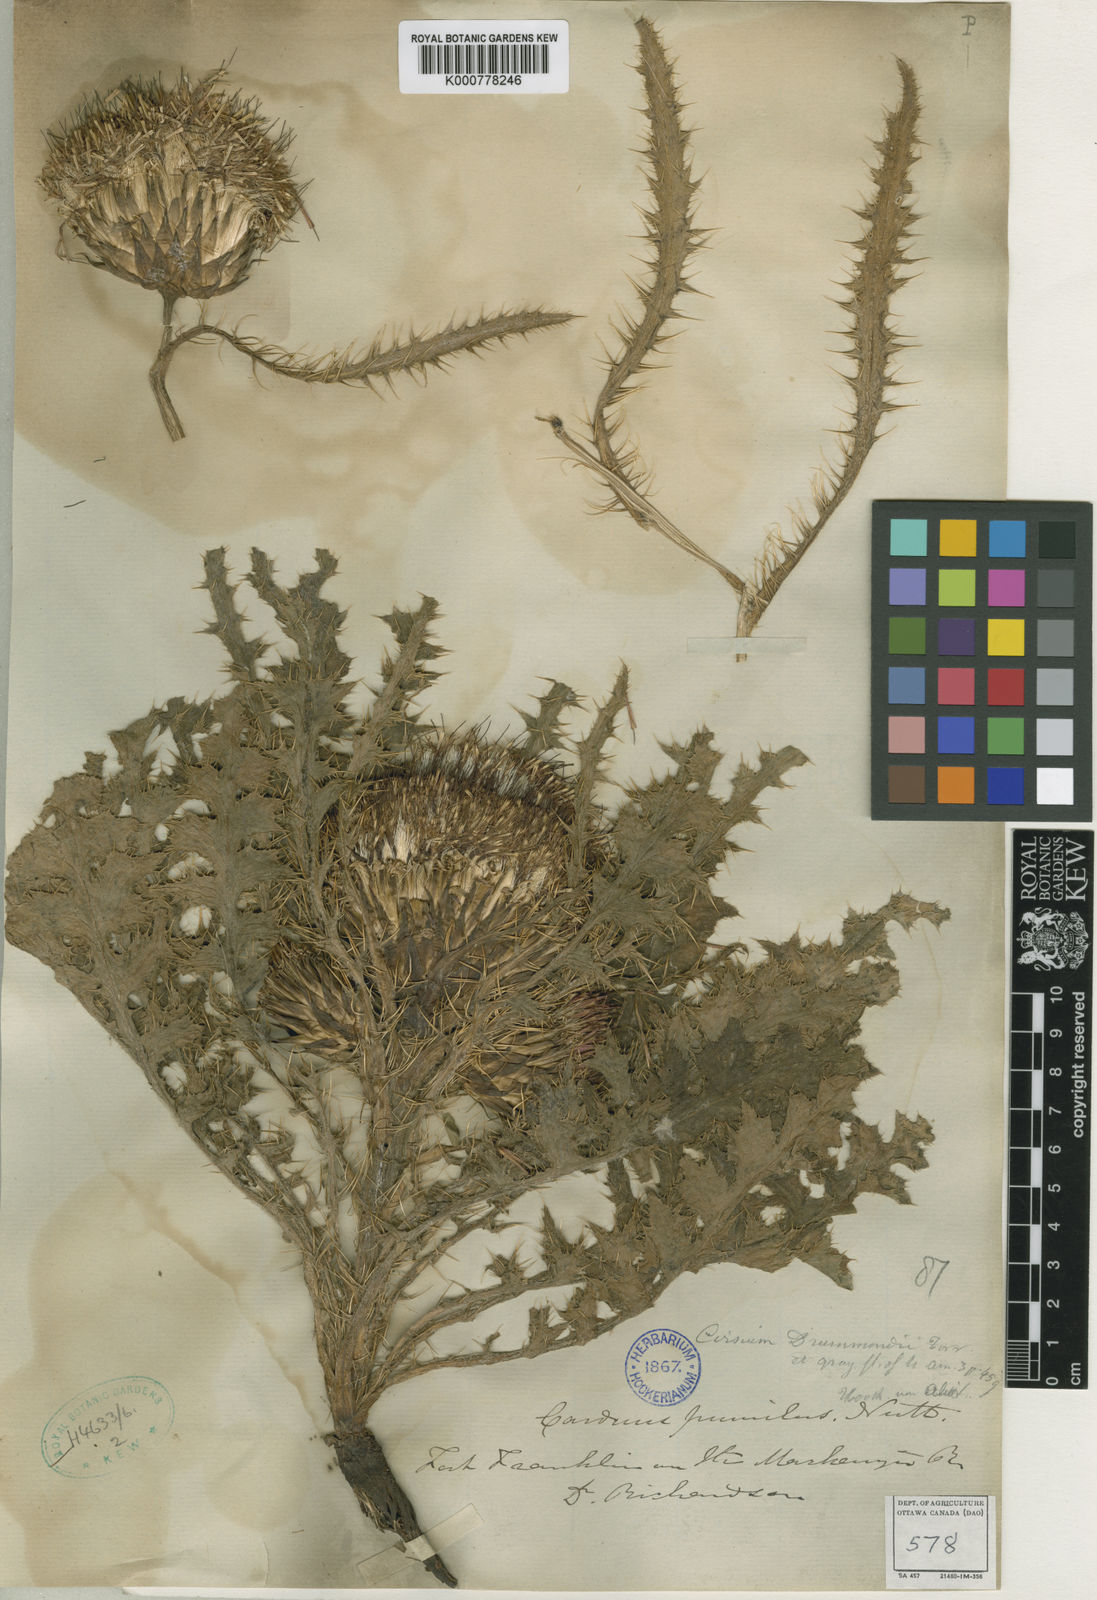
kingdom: Plantae
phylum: Tracheophyta
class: Magnoliopsida
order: Asterales
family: Asteraceae
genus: Cirsium
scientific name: Cirsium drummondii
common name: Drummond's thistle
